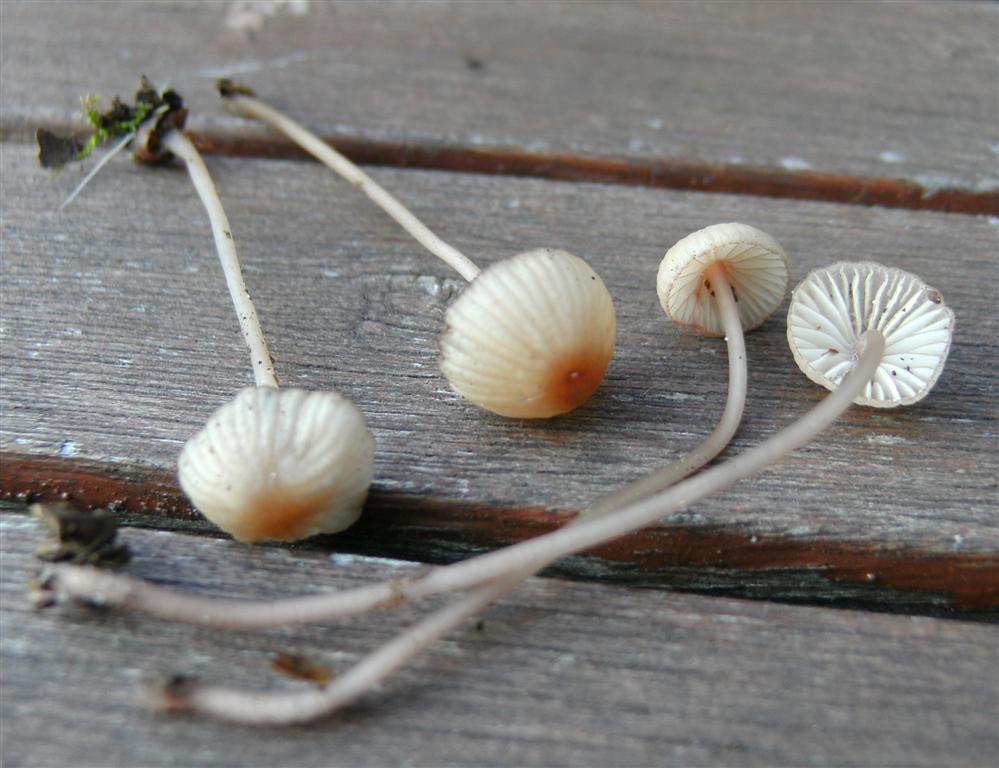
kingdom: Fungi
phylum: Basidiomycota
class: Agaricomycetes
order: Agaricales
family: Mycenaceae
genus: Mycena
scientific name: Mycena sanguinolenta
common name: rødmælket huesvamp
